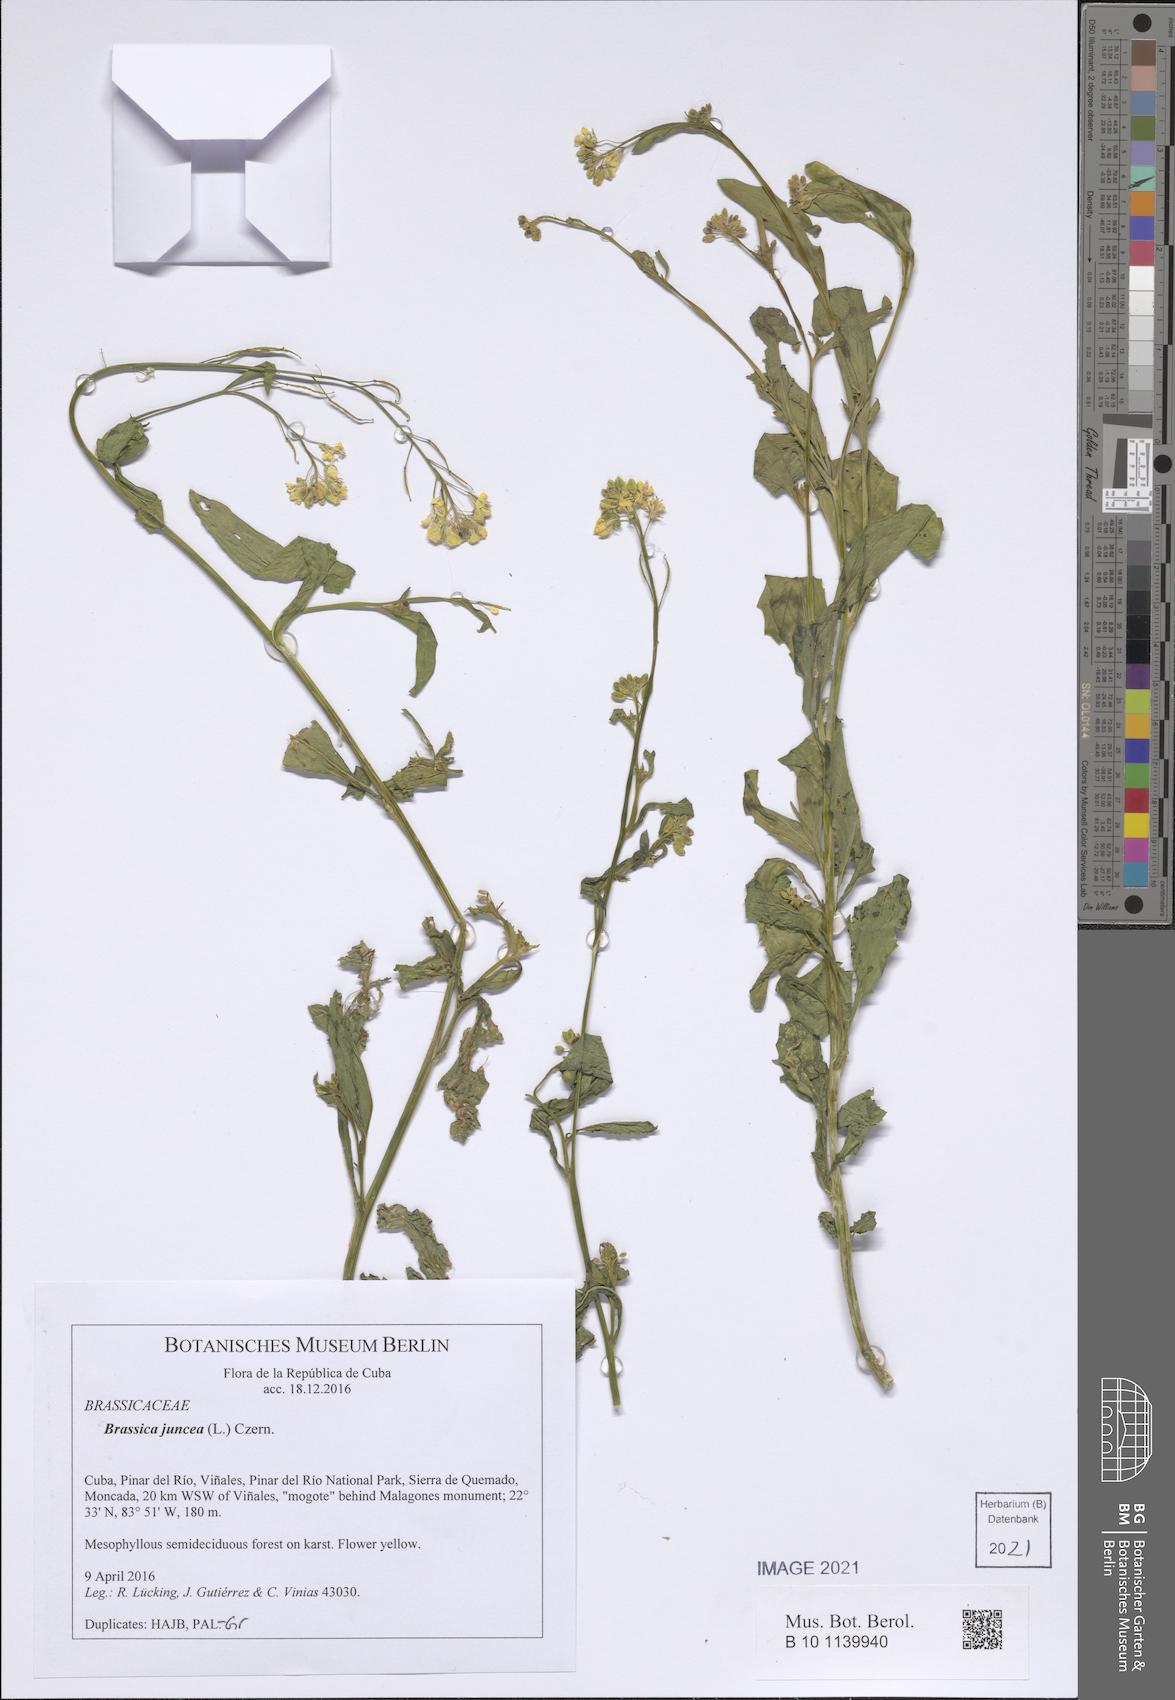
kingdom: Plantae
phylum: Tracheophyta
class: Magnoliopsida
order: Brassicales
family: Brassicaceae
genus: Brassica
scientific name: Brassica juncea
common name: Brown mustard
